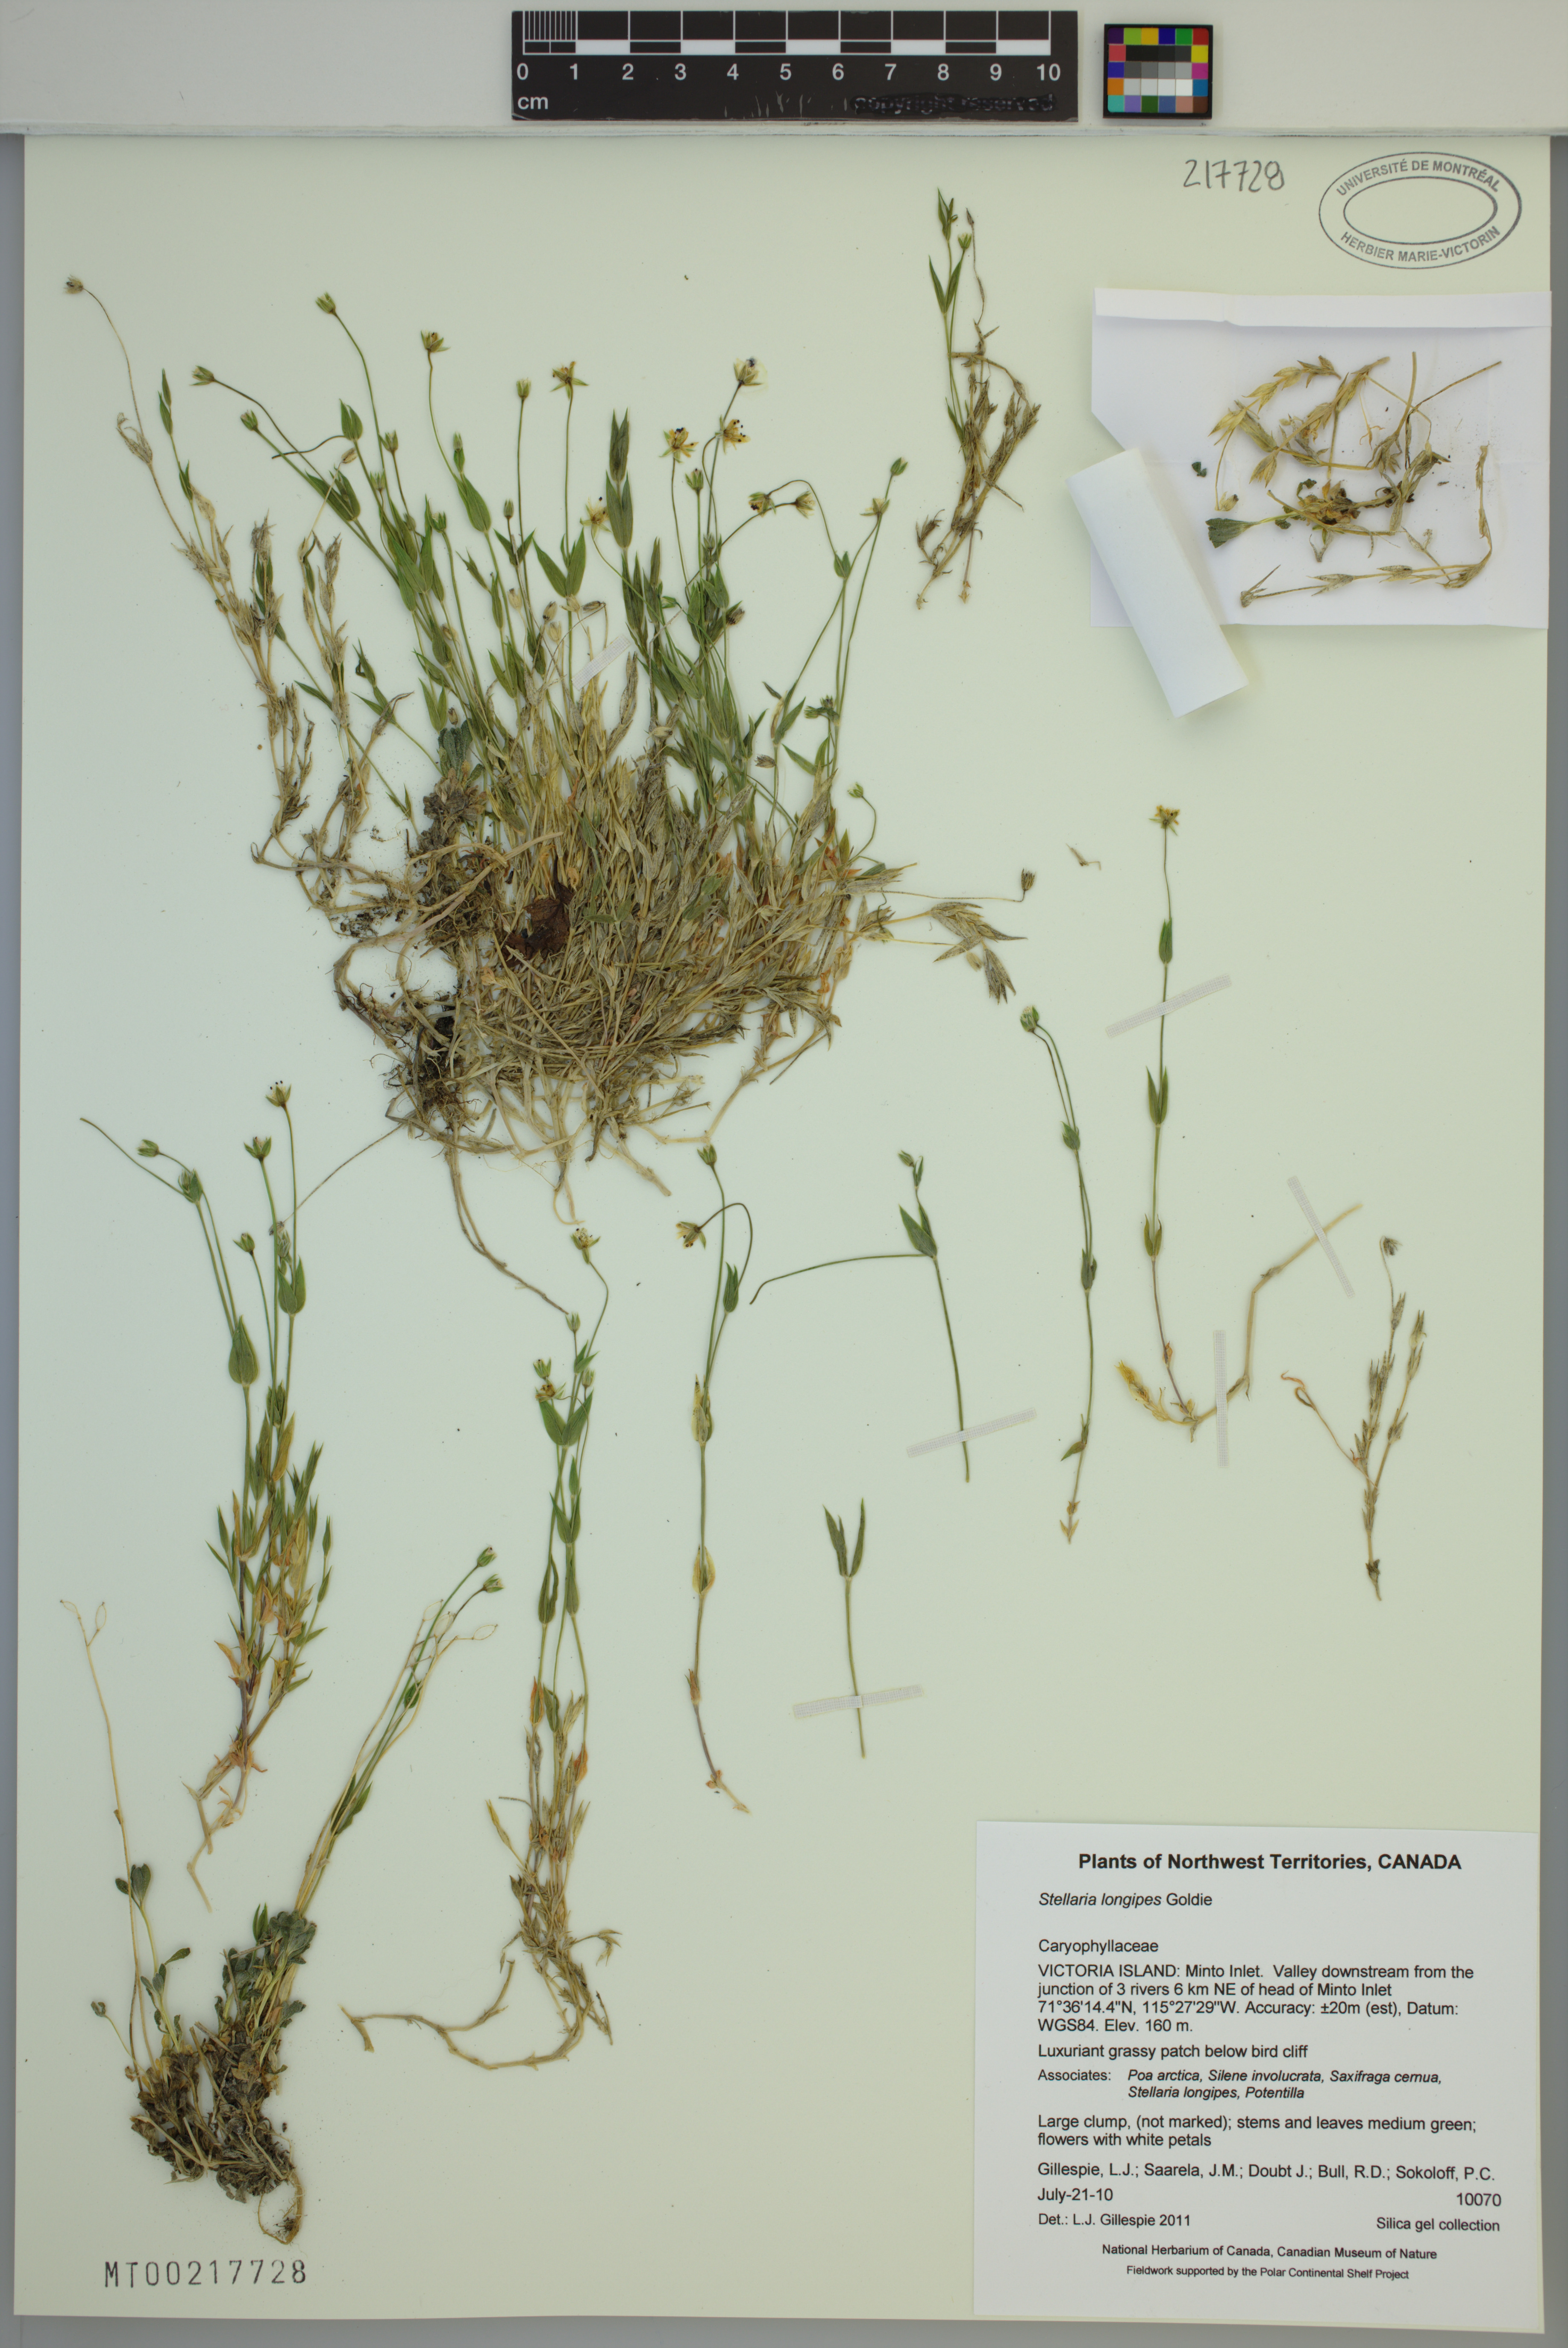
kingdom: Plantae
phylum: Tracheophyta
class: Magnoliopsida
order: Caryophyllales
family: Caryophyllaceae
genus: Stellaria
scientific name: Stellaria longipes
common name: Goldie's starwort
